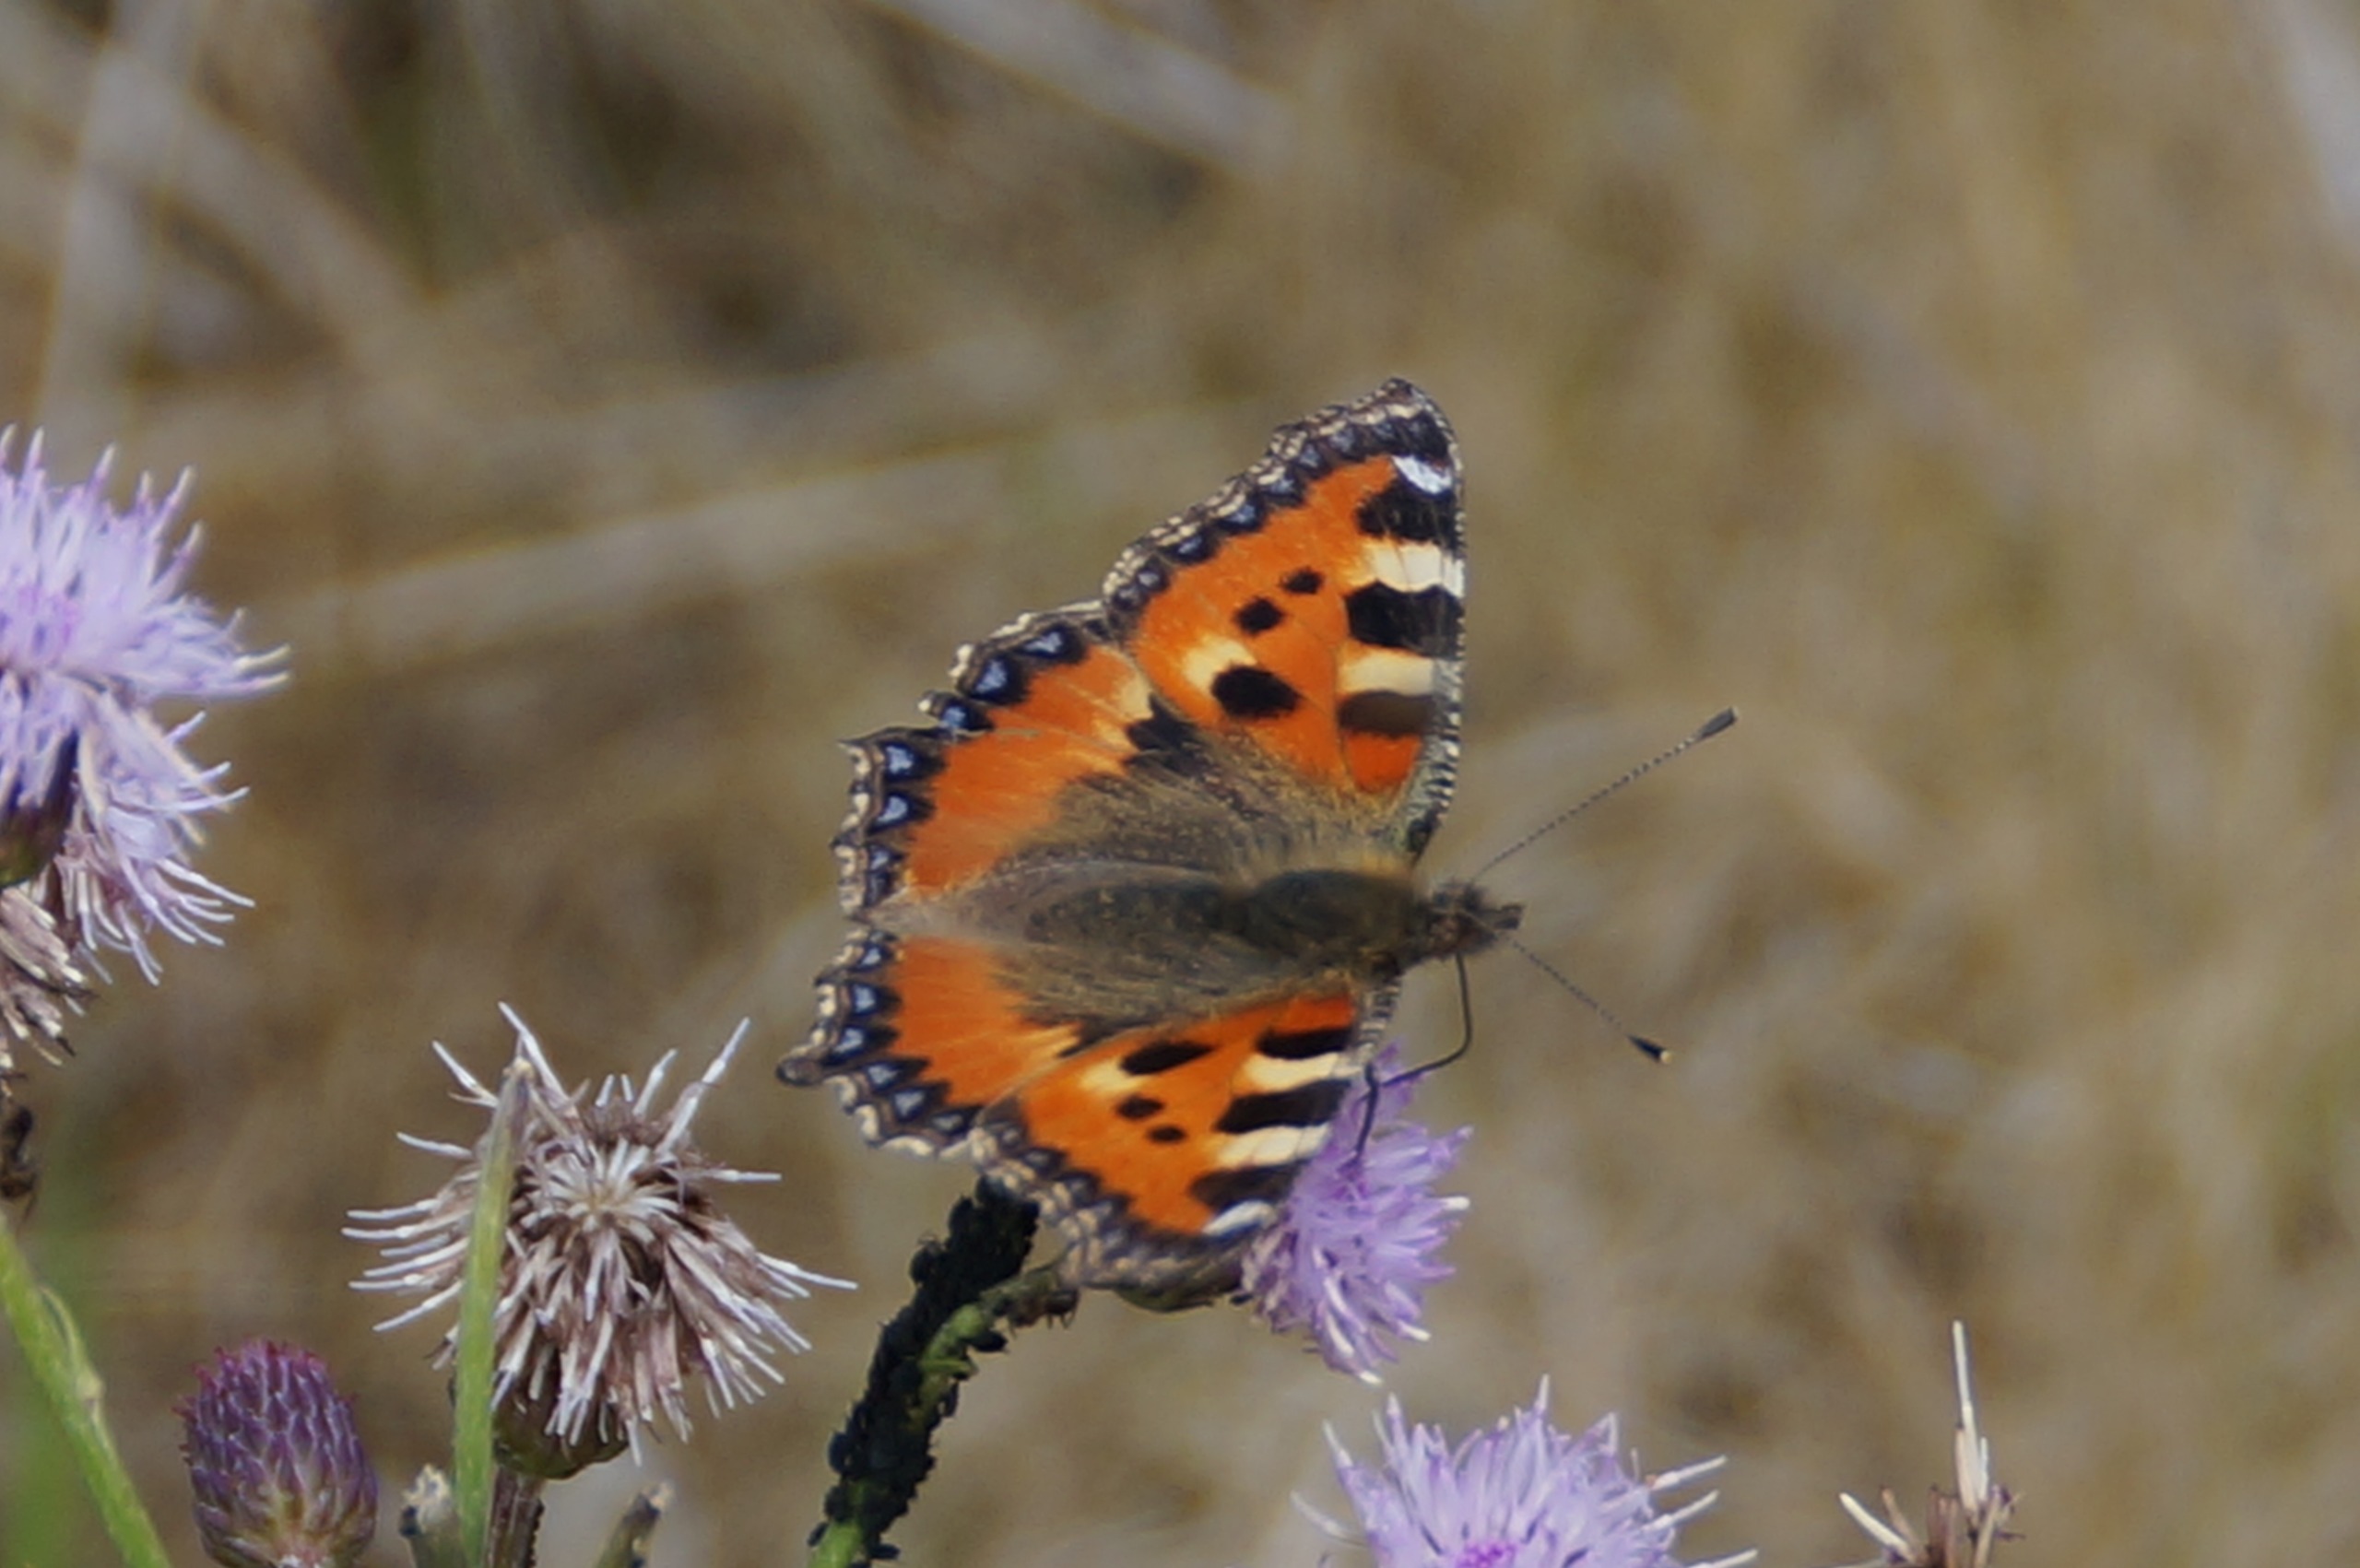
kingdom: Animalia
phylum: Arthropoda
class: Insecta
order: Lepidoptera
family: Nymphalidae
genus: Aglais
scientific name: Aglais urticae
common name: Nældens takvinge
